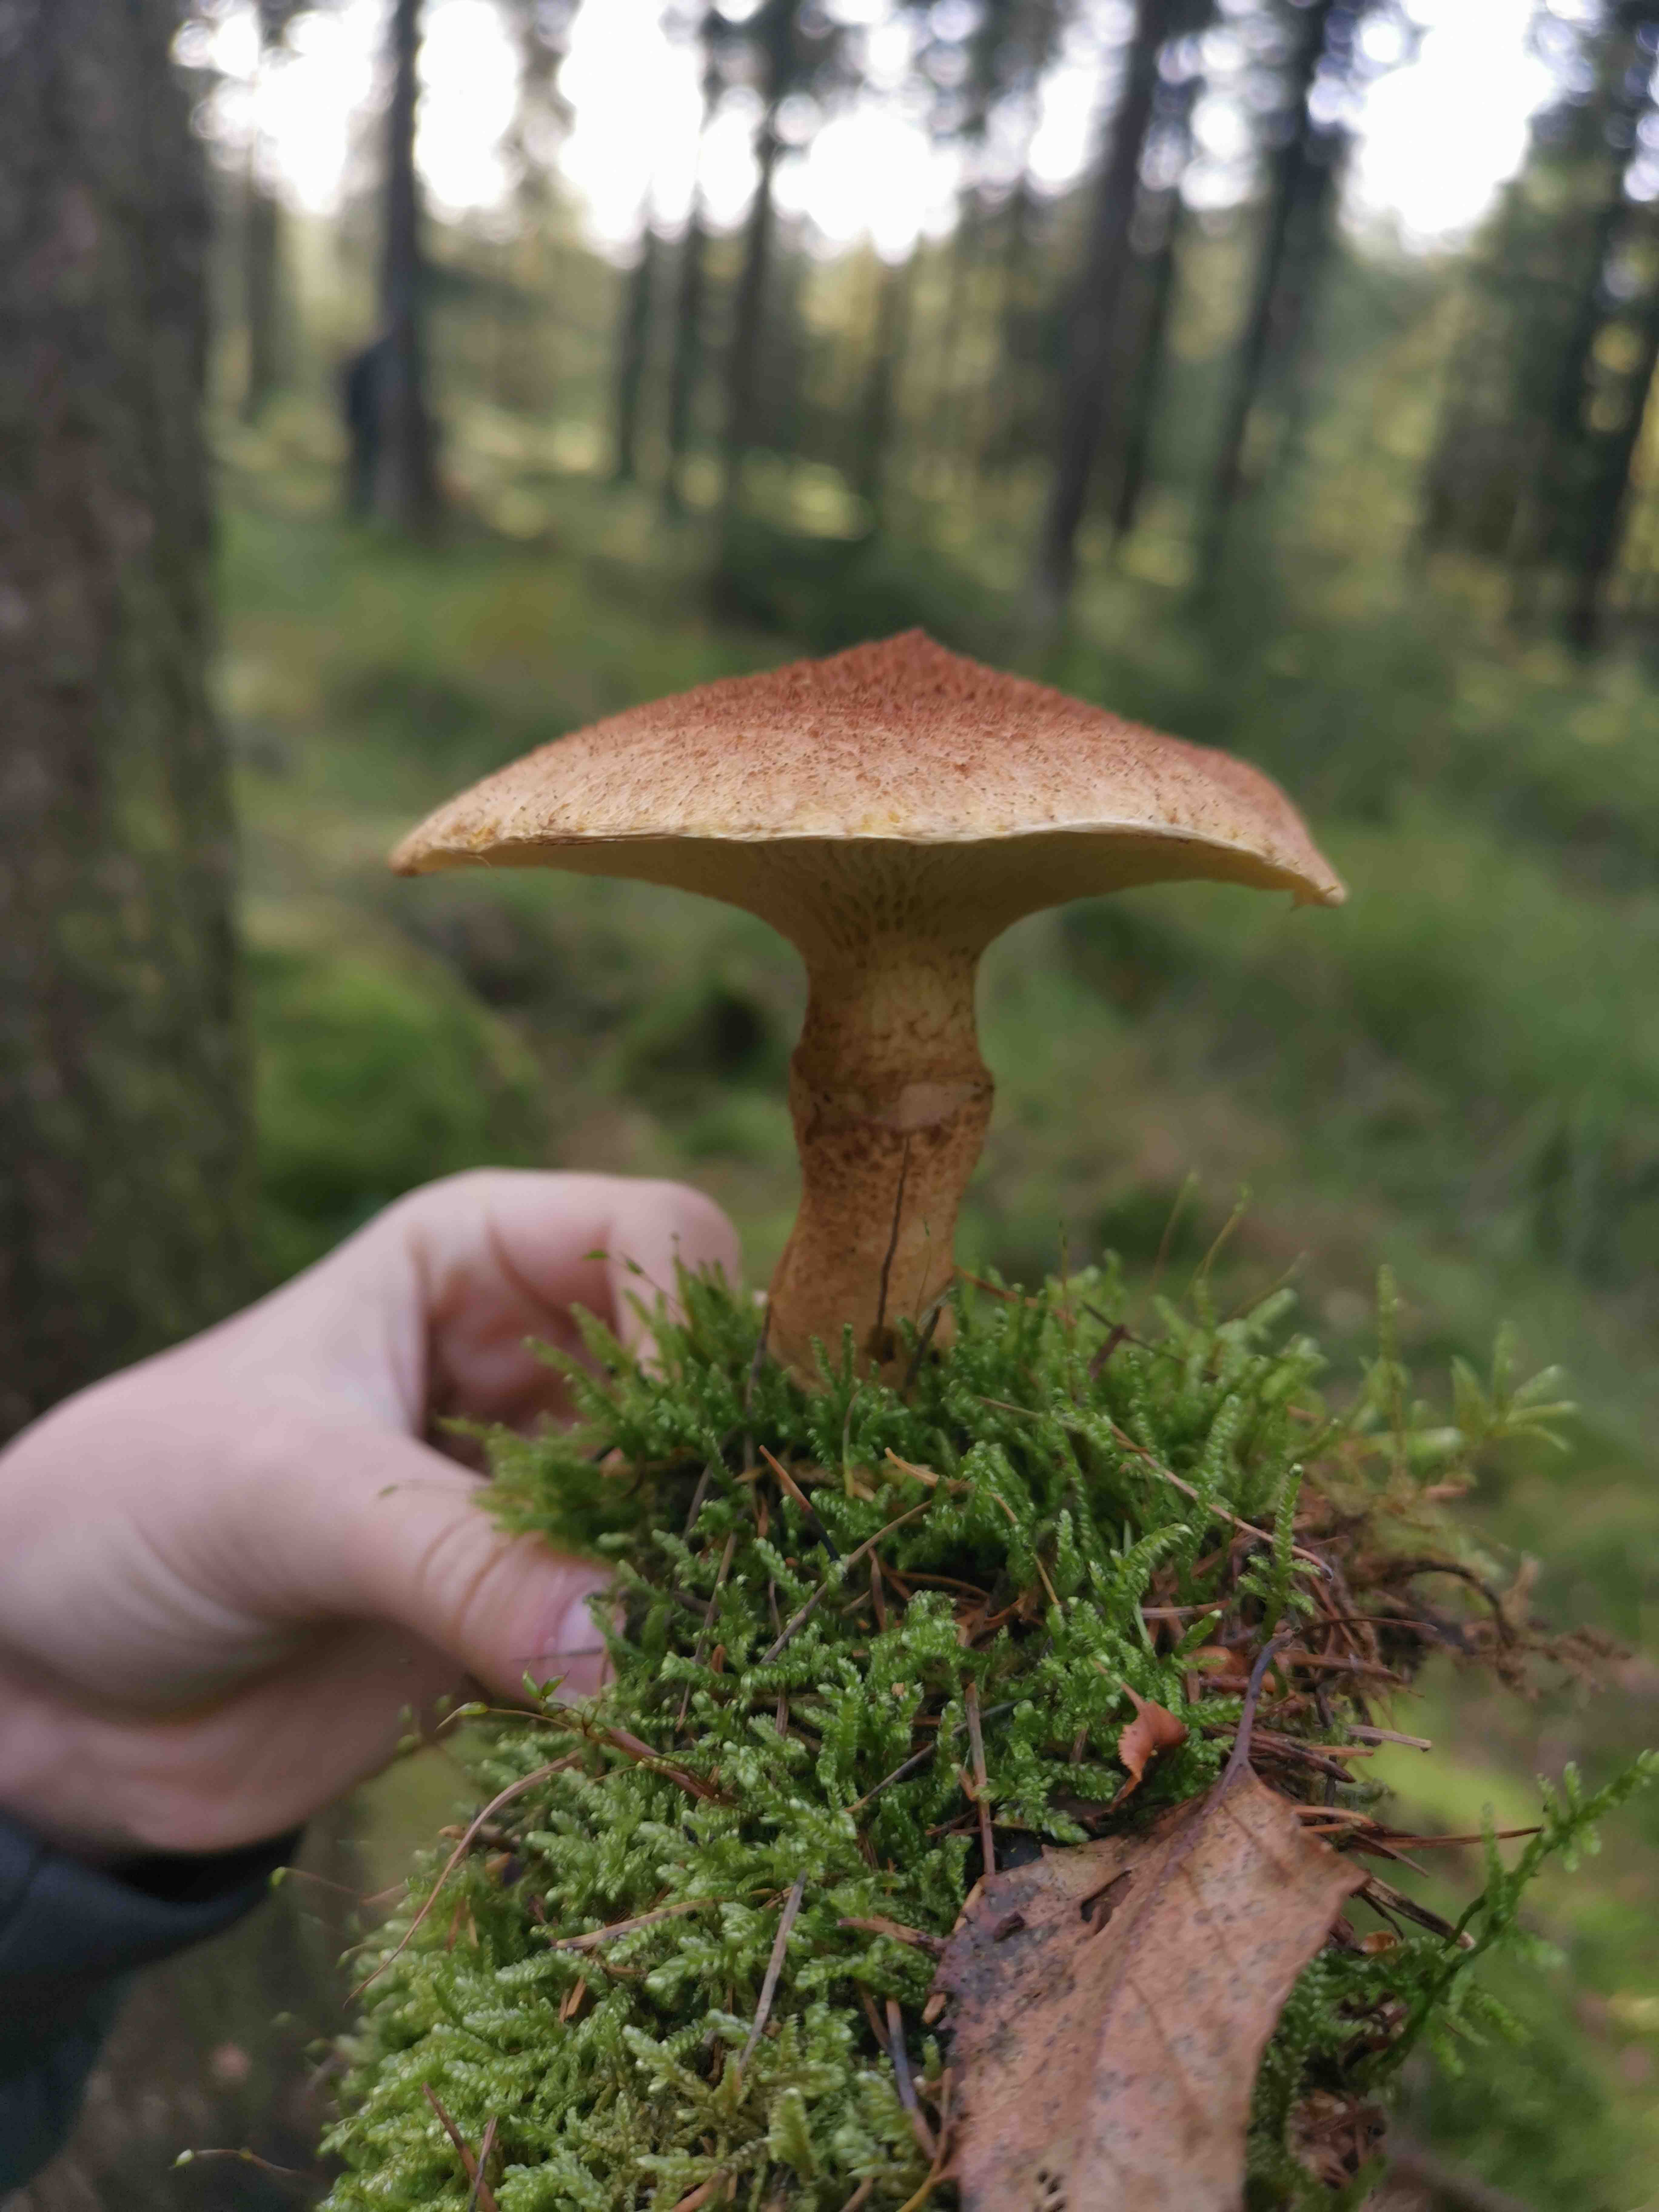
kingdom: Fungi
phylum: Basidiomycota
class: Agaricomycetes
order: Boletales
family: Suillaceae
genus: Suillus
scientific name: Suillus cavipes
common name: hulstokket slimrørhat
